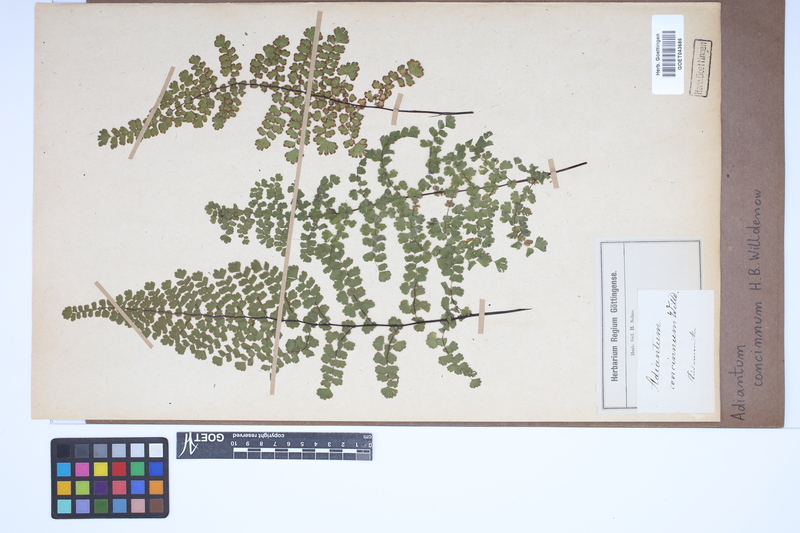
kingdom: Plantae
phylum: Tracheophyta
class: Polypodiopsida
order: Polypodiales
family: Pteridaceae
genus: Adiantum
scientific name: Adiantum concinnum
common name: Brittle maidenhair fern
